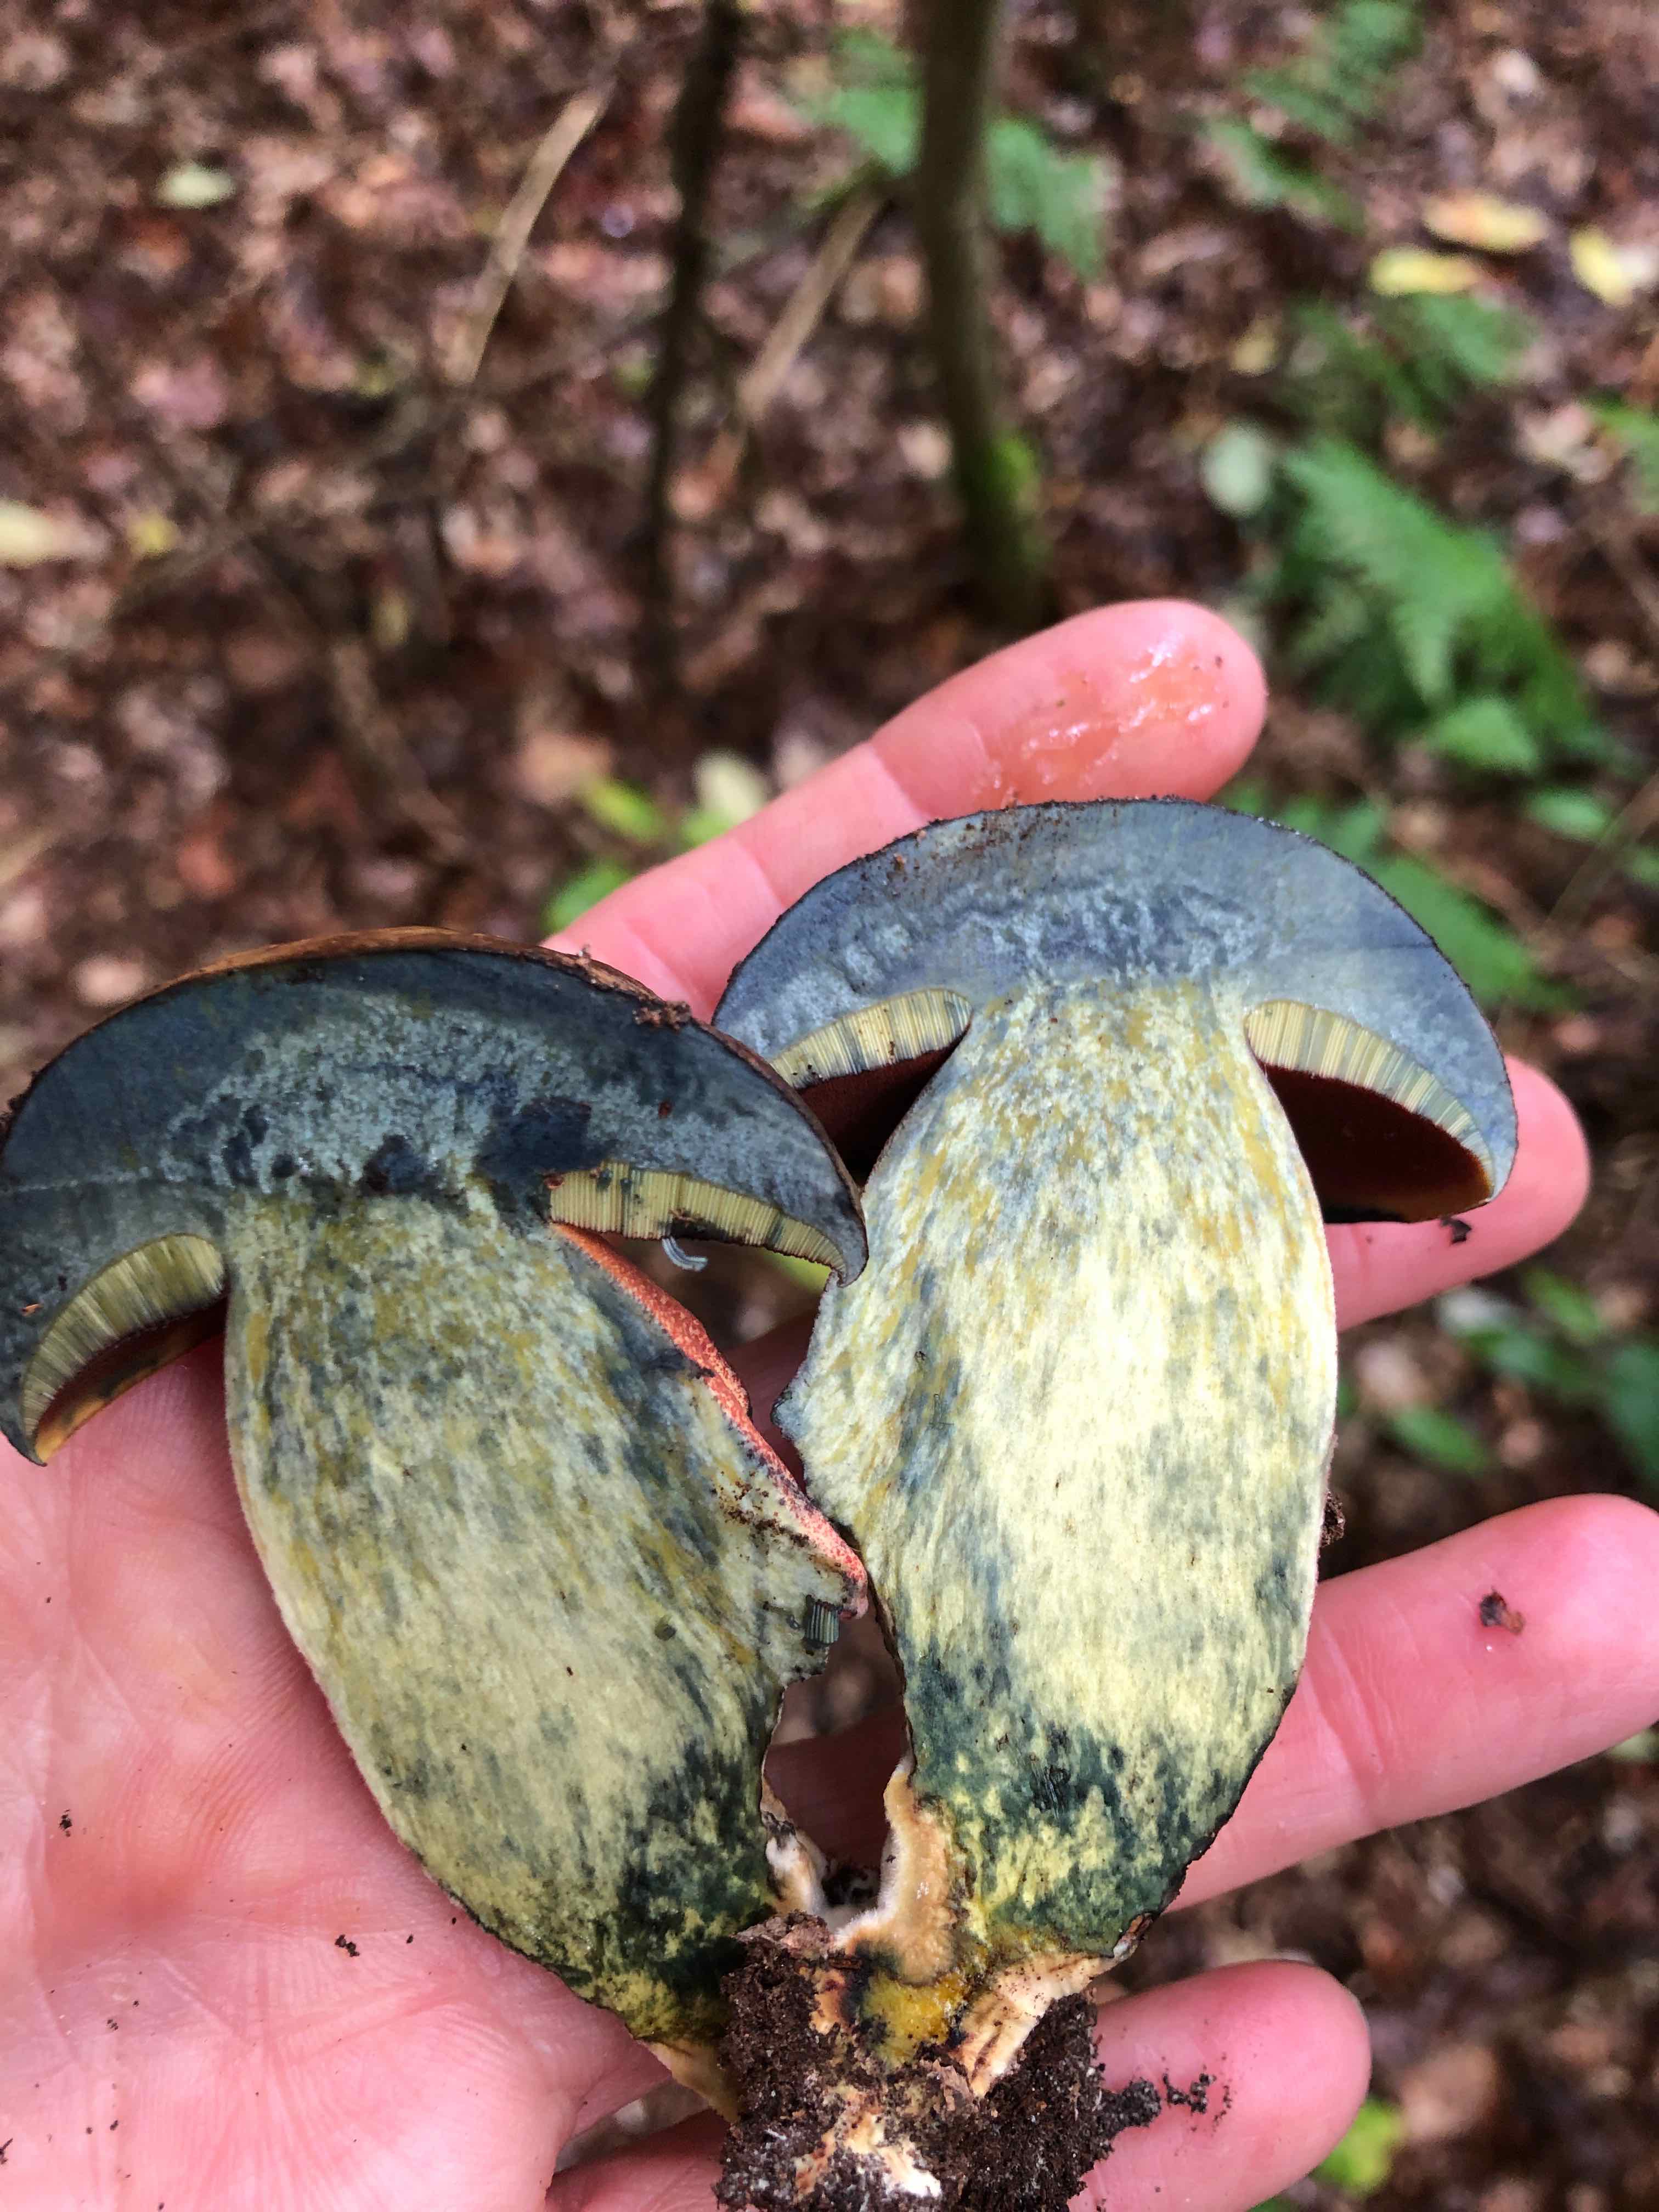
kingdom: Fungi
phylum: Basidiomycota
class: Agaricomycetes
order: Boletales
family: Boletaceae
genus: Neoboletus
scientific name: Neoboletus erythropus
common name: punktstokket indigorørhat
